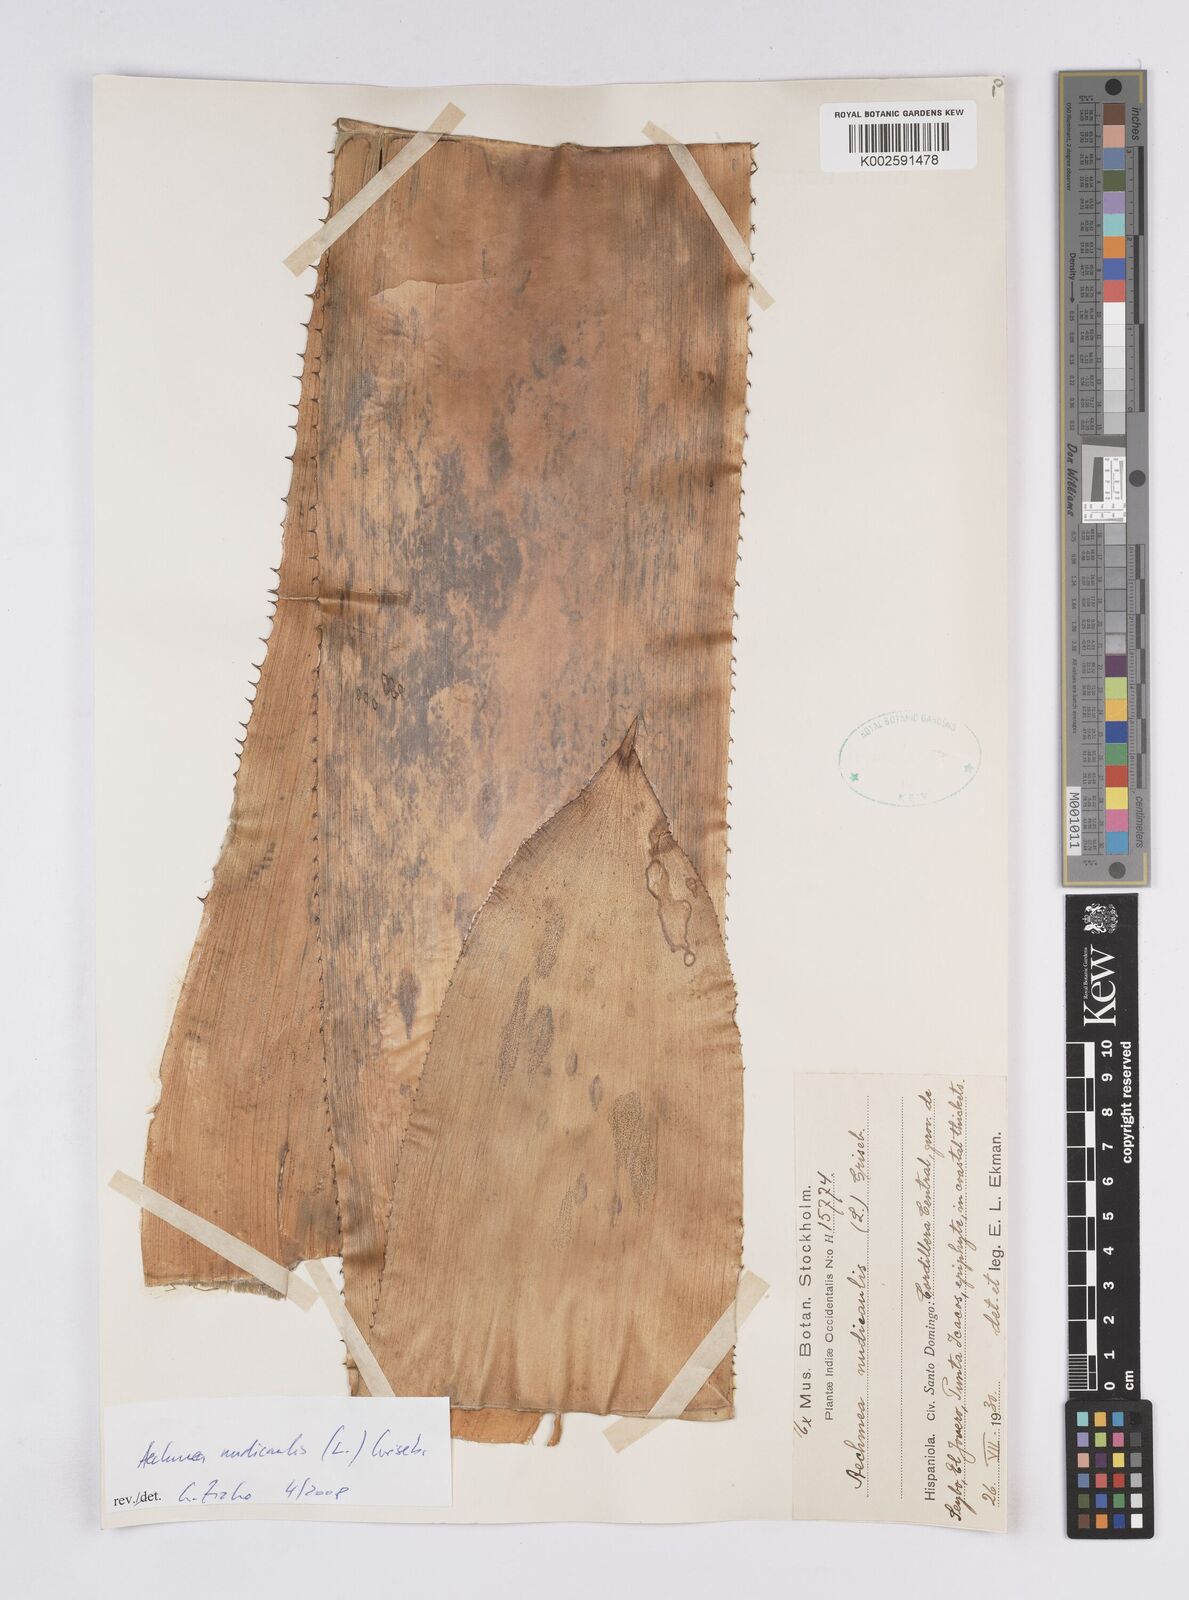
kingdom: Plantae
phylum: Tracheophyta
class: Liliopsida
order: Poales
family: Bromeliaceae
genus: Aechmea
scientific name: Aechmea nudicaulis
